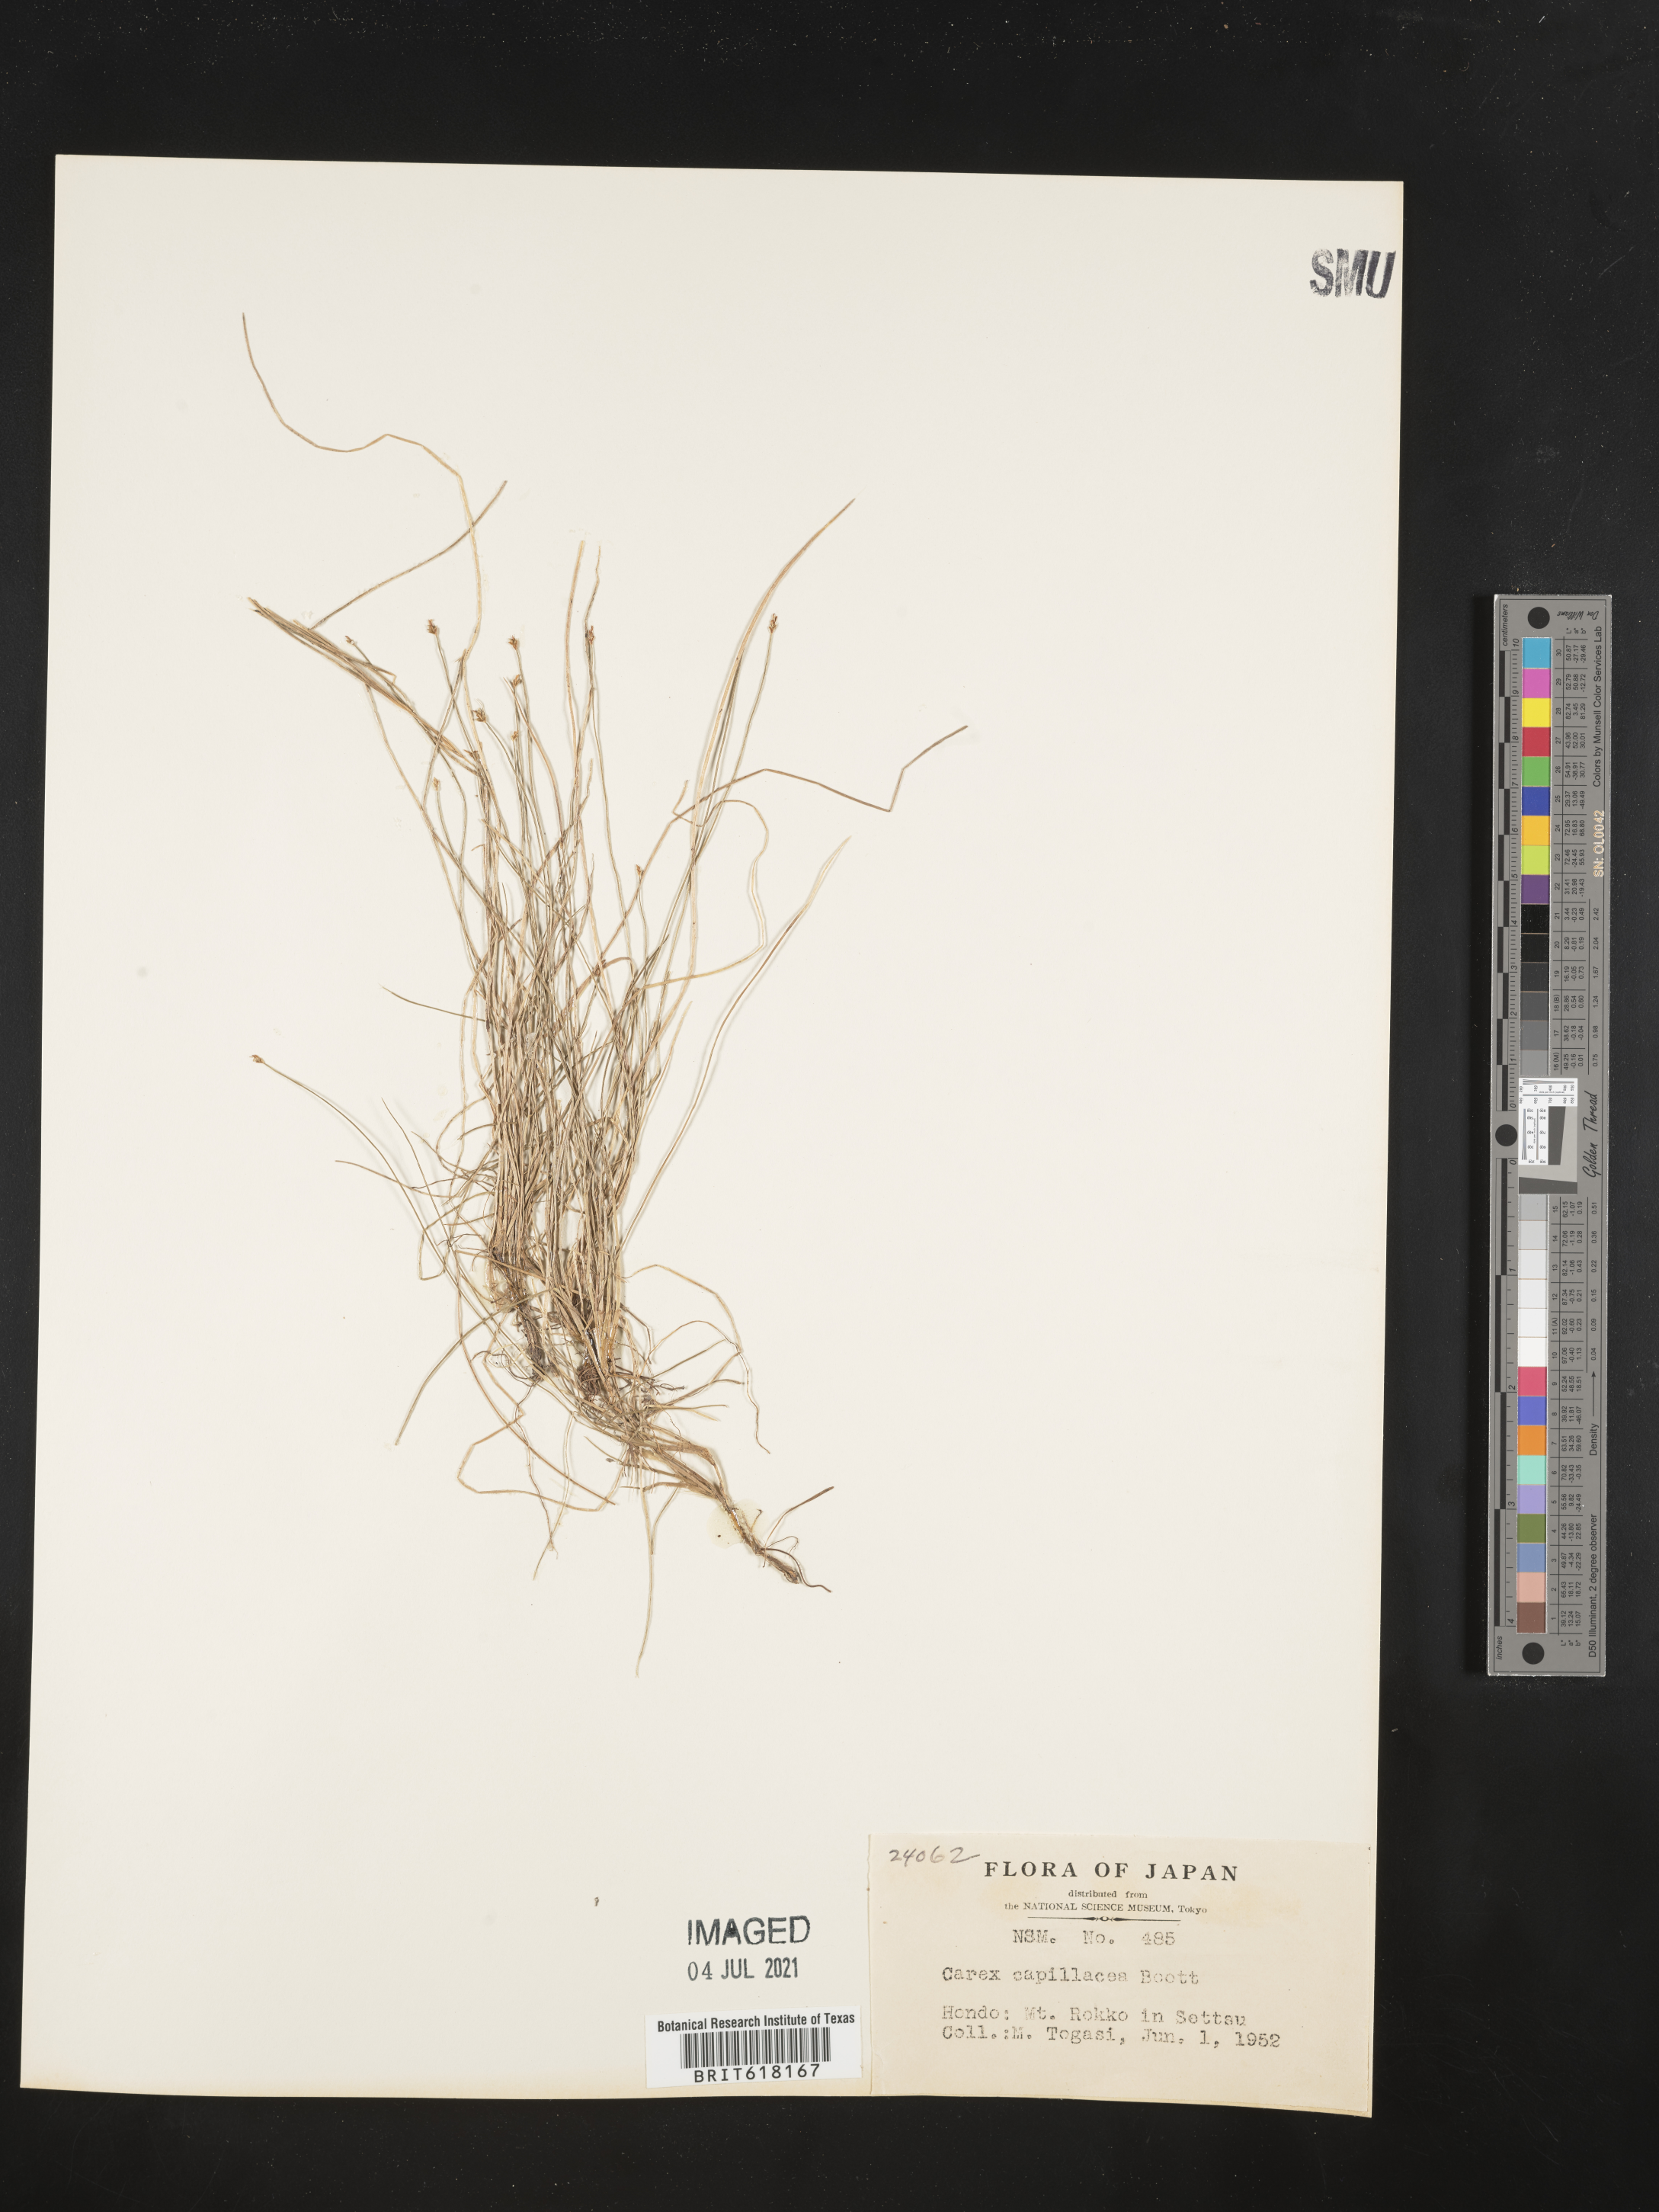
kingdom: Plantae
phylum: Tracheophyta
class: Liliopsida
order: Poales
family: Cyperaceae
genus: Carex
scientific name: Carex capillacea
